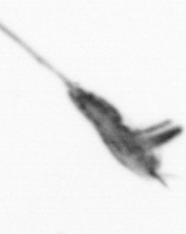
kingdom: Animalia
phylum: Arthropoda
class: Copepoda
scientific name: Copepoda
